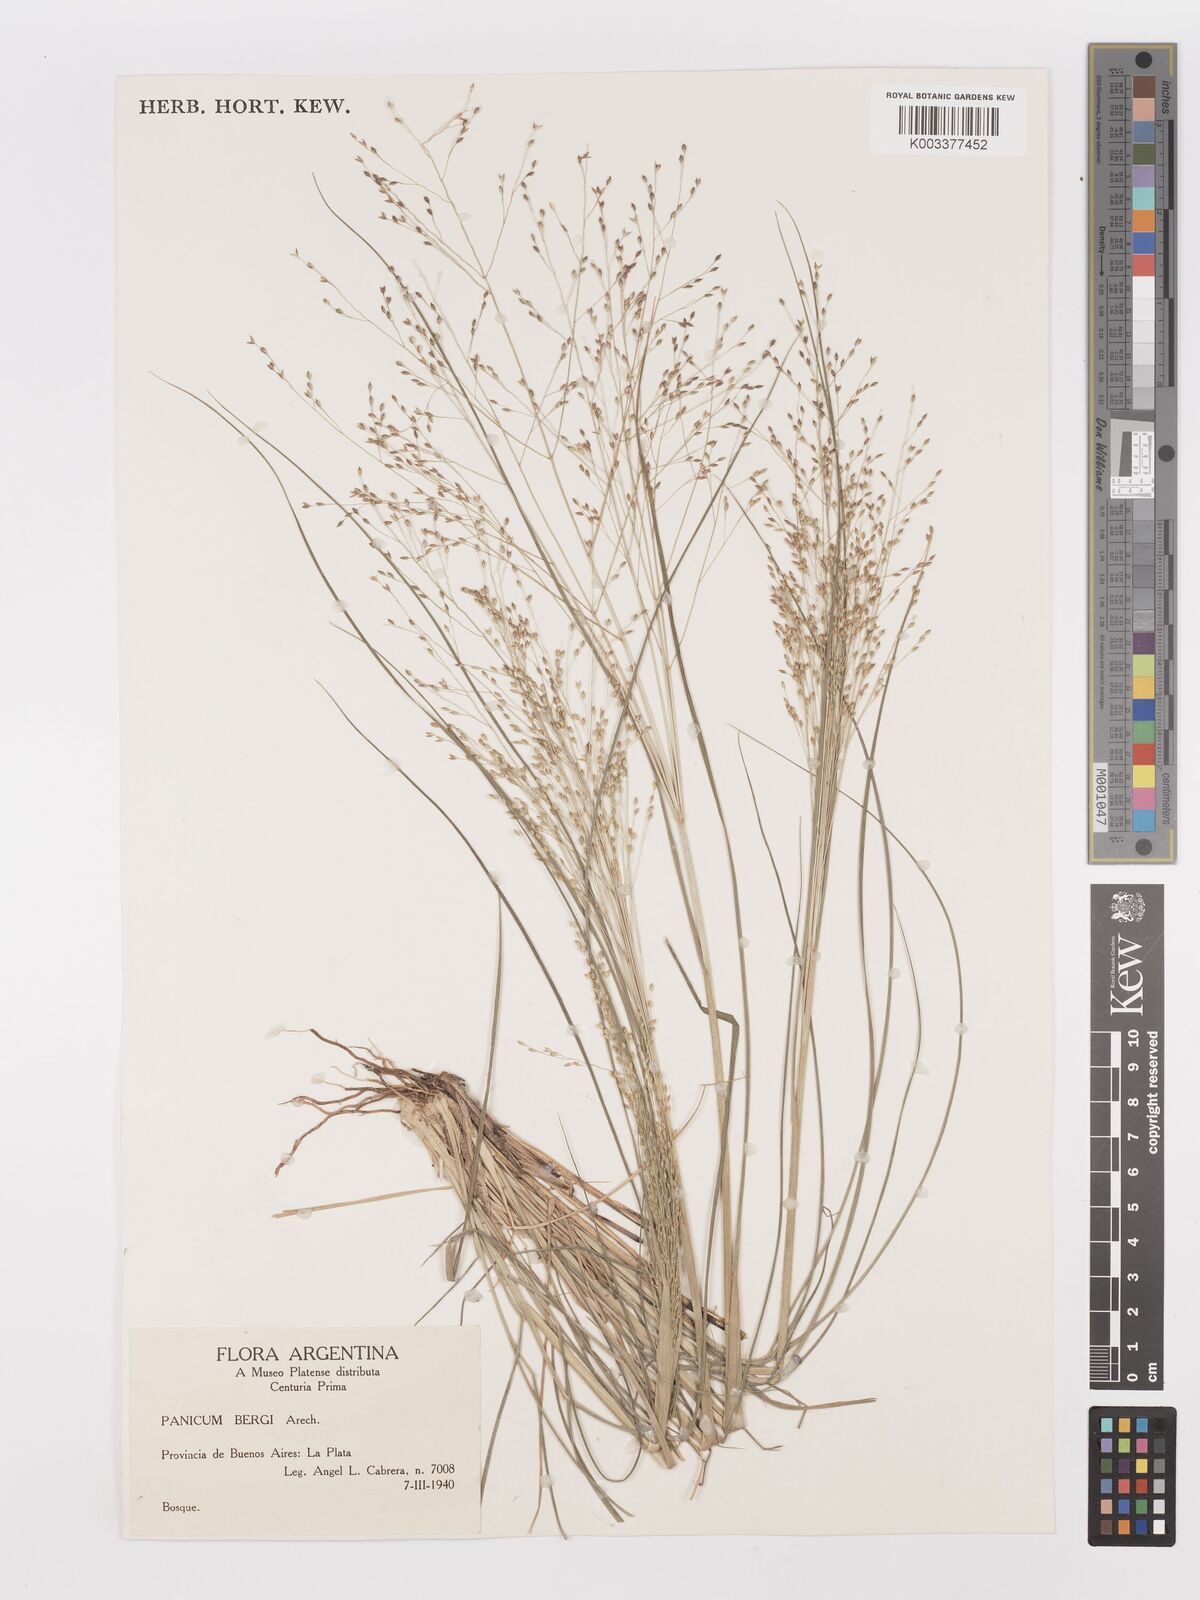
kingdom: Plantae
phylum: Tracheophyta
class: Liliopsida
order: Poales
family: Poaceae
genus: Panicum
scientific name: Panicum bergii
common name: Berg's panicgrass
